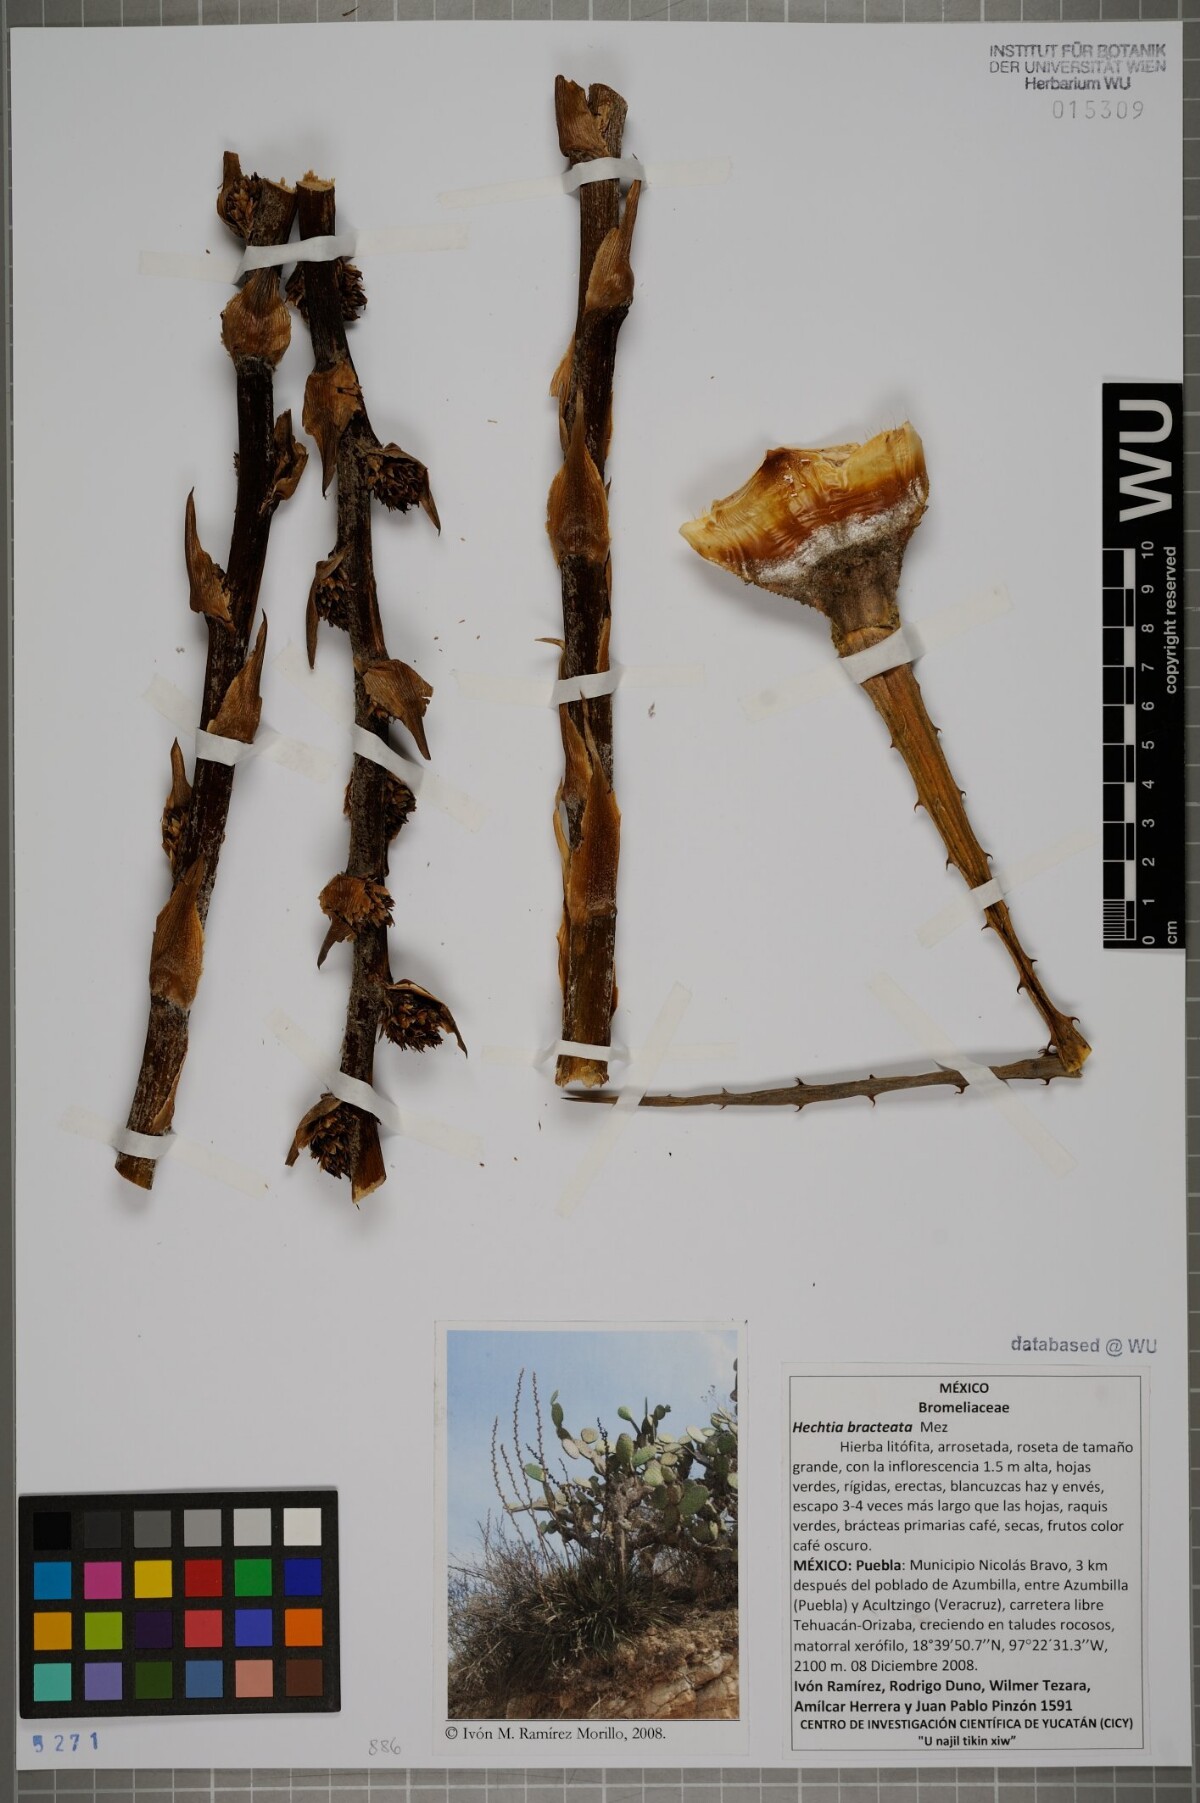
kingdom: Plantae
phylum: Tracheophyta
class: Liliopsida
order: Poales
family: Bromeliaceae
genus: Hechtia
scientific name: Hechtia bracteata
